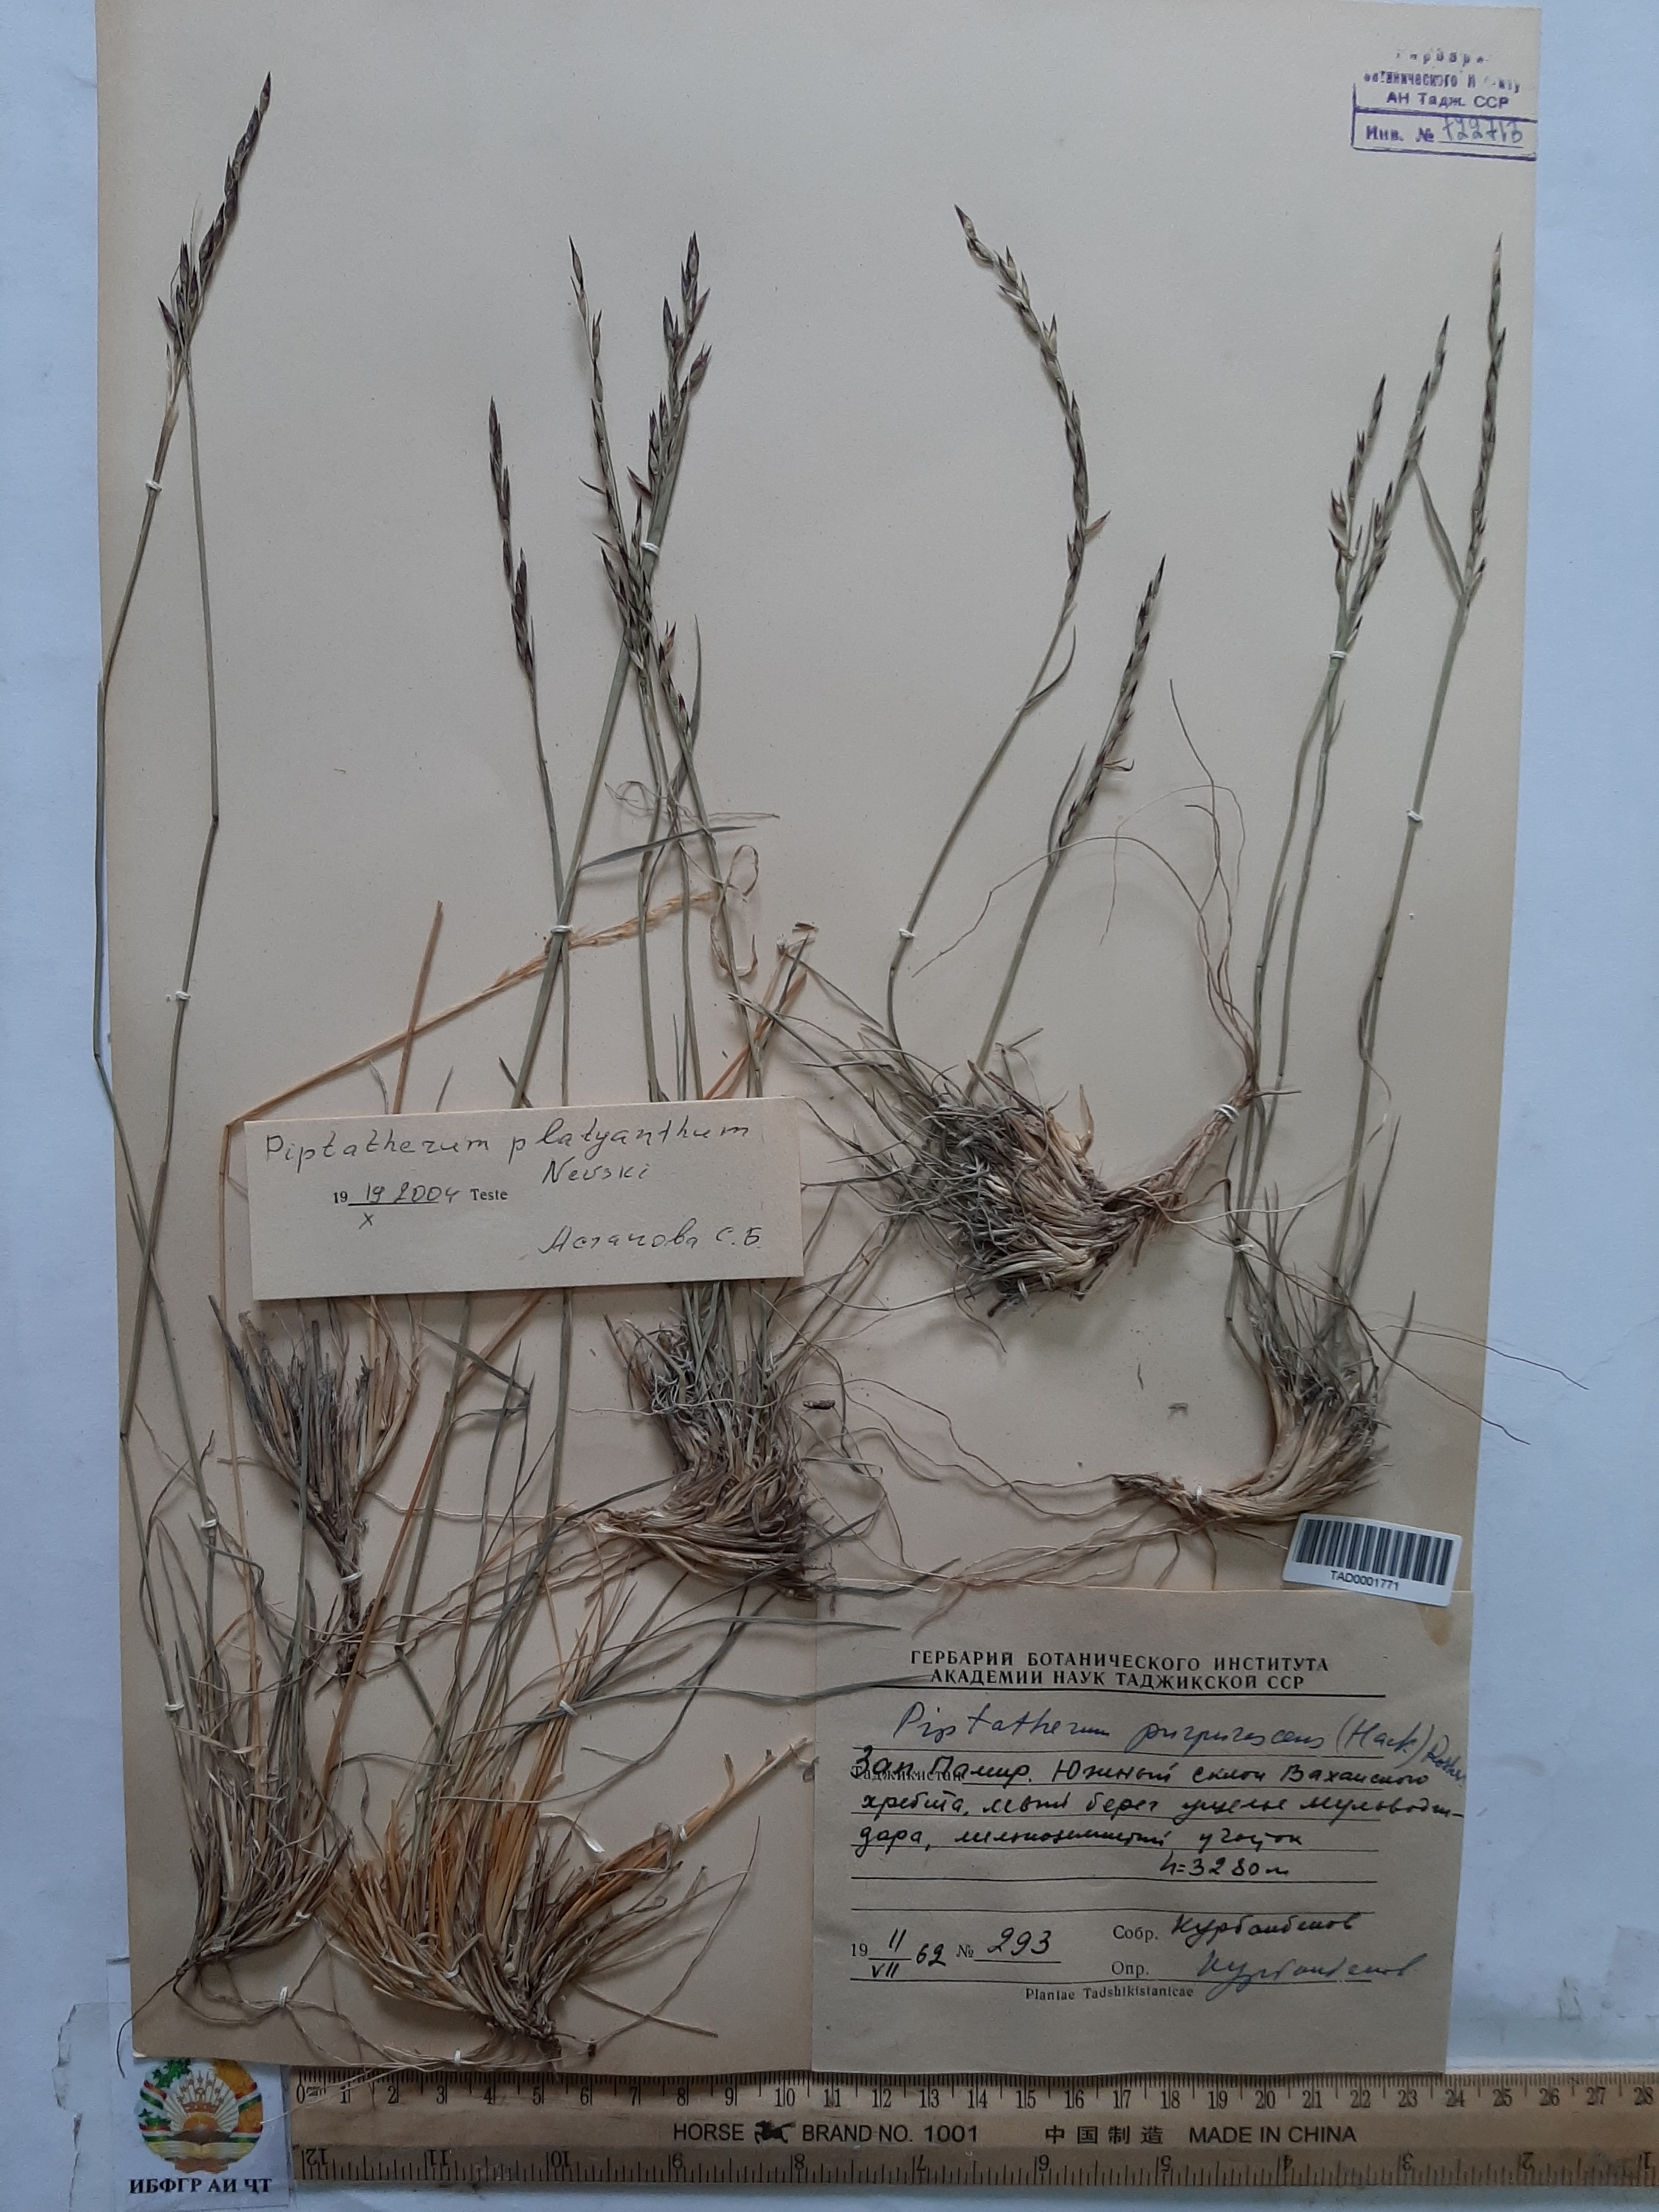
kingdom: Plantae
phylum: Tracheophyta
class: Liliopsida
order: Poales
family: Poaceae
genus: Piptatherum
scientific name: Piptatherum platyanthum
